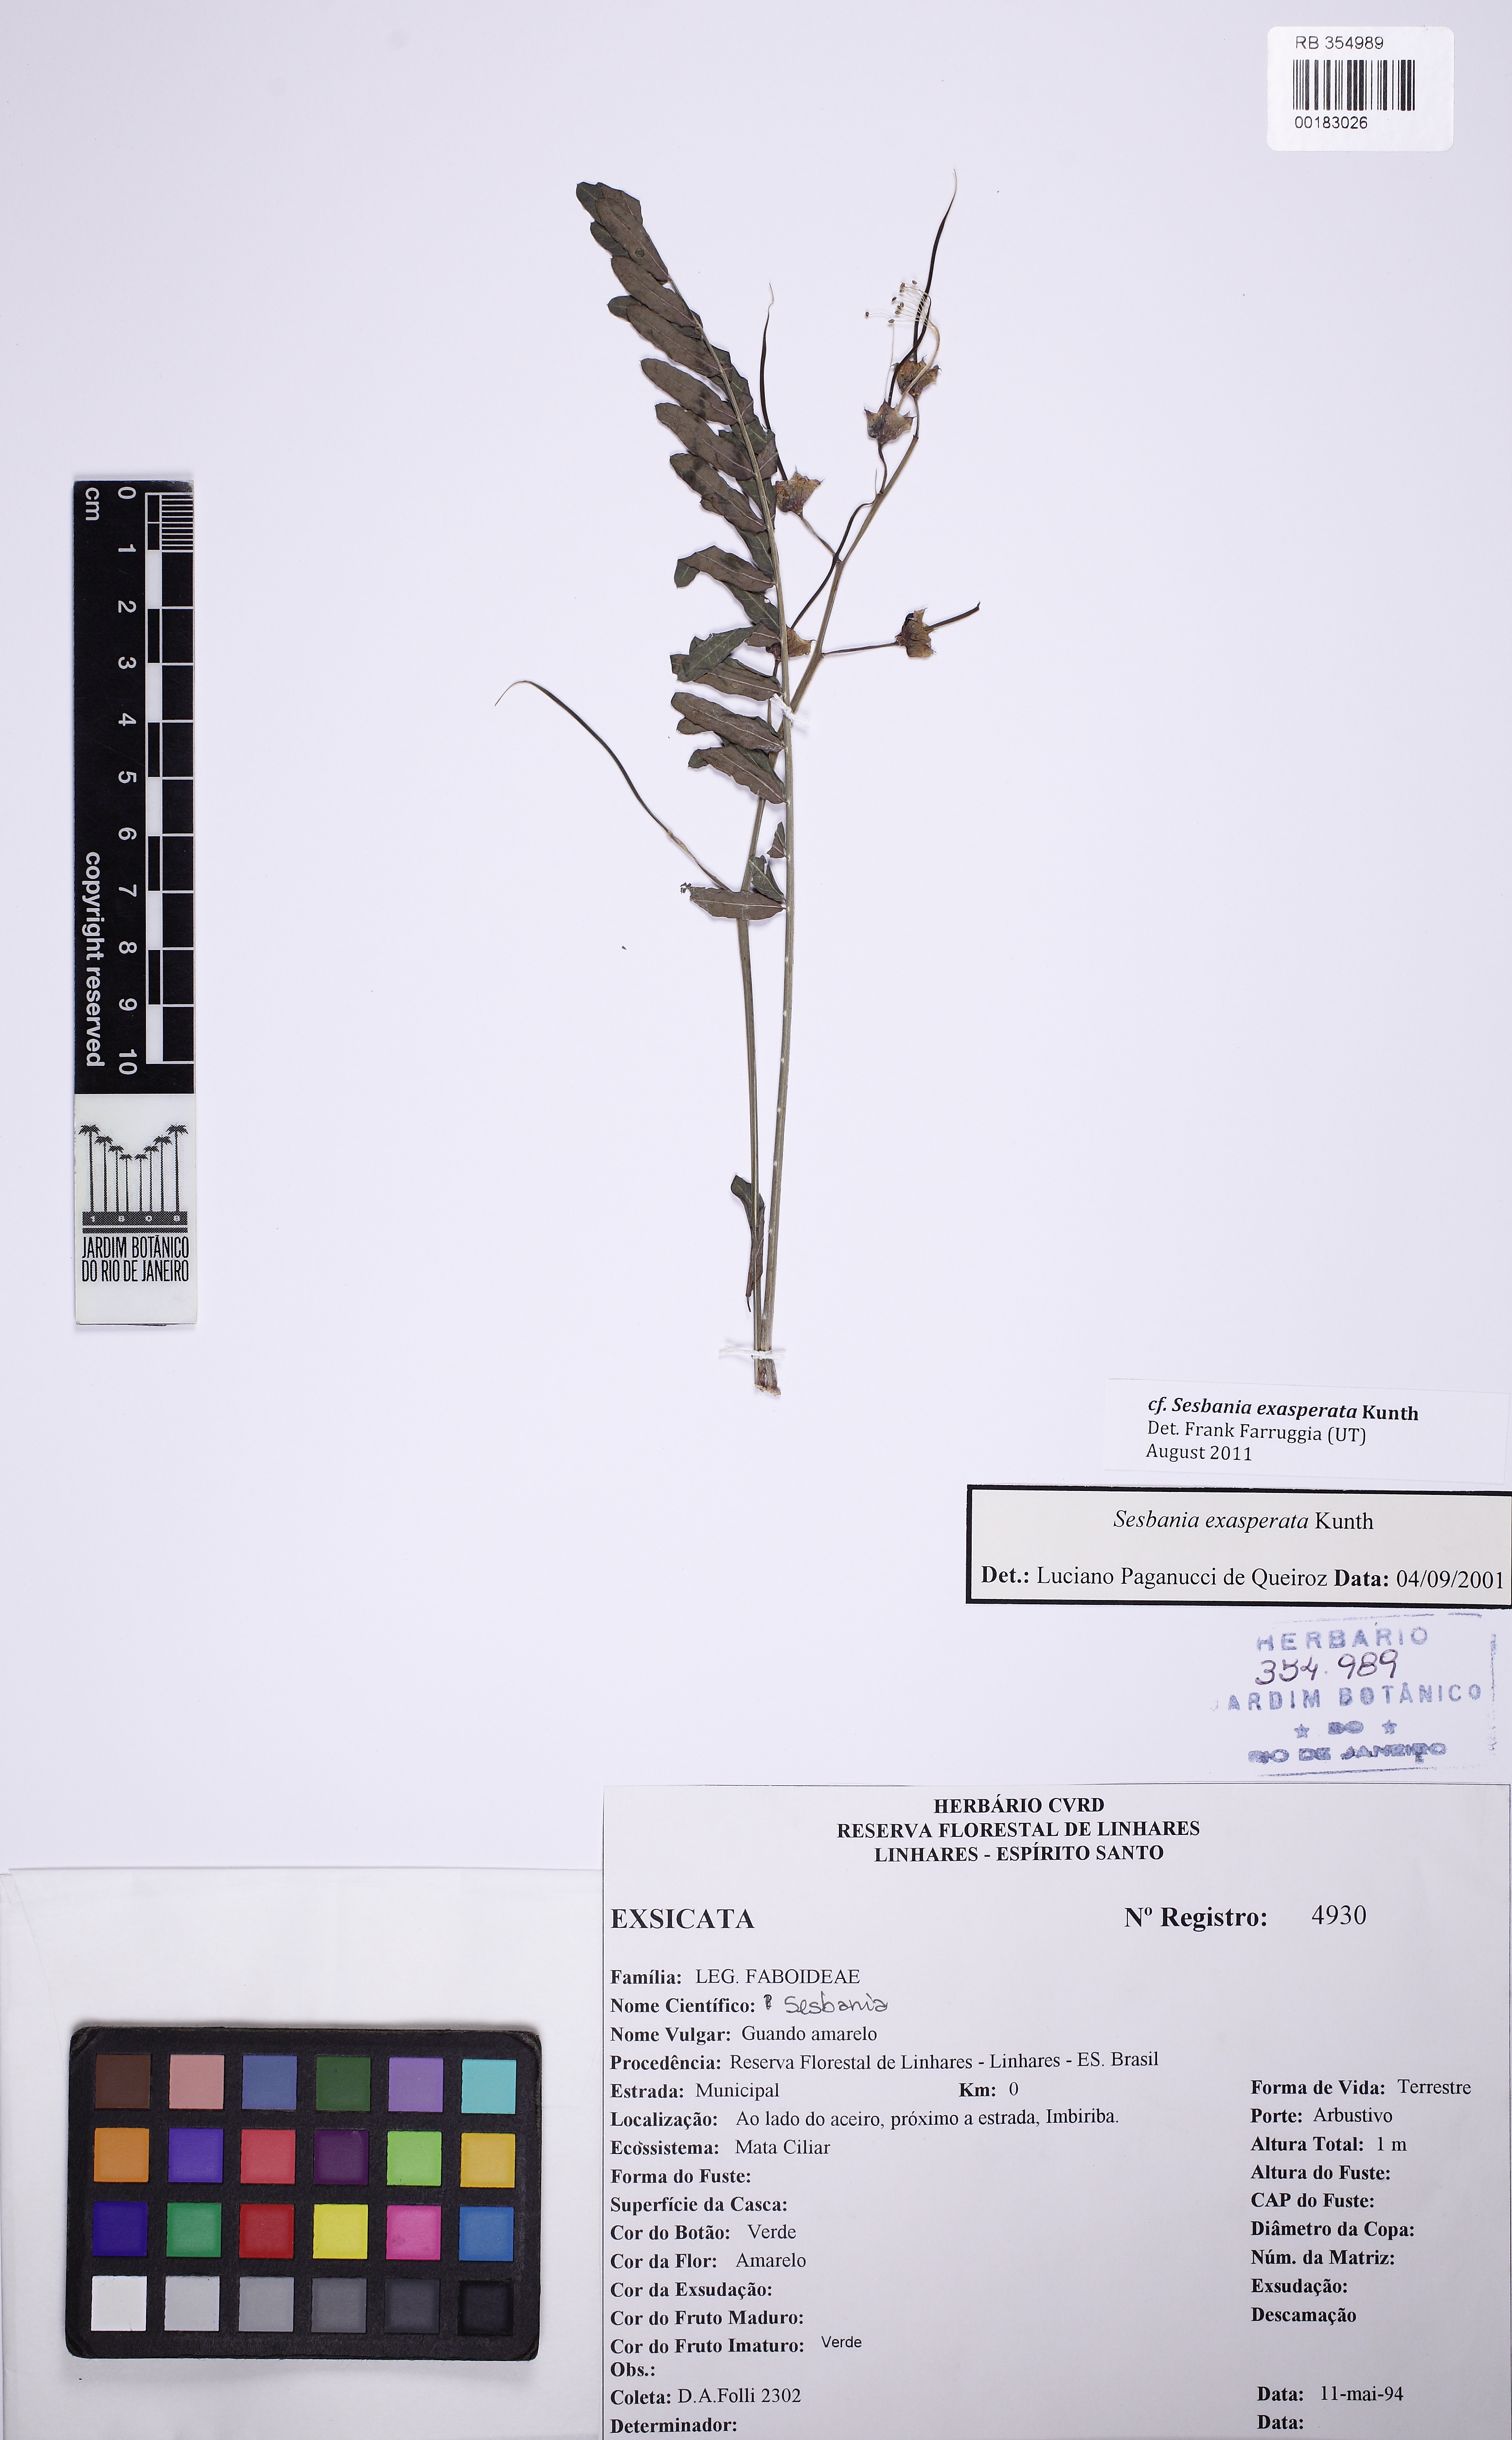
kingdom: Plantae
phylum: Tracheophyta
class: Magnoliopsida
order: Fabales
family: Fabaceae
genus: Sesbania
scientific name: Sesbania exasperata
